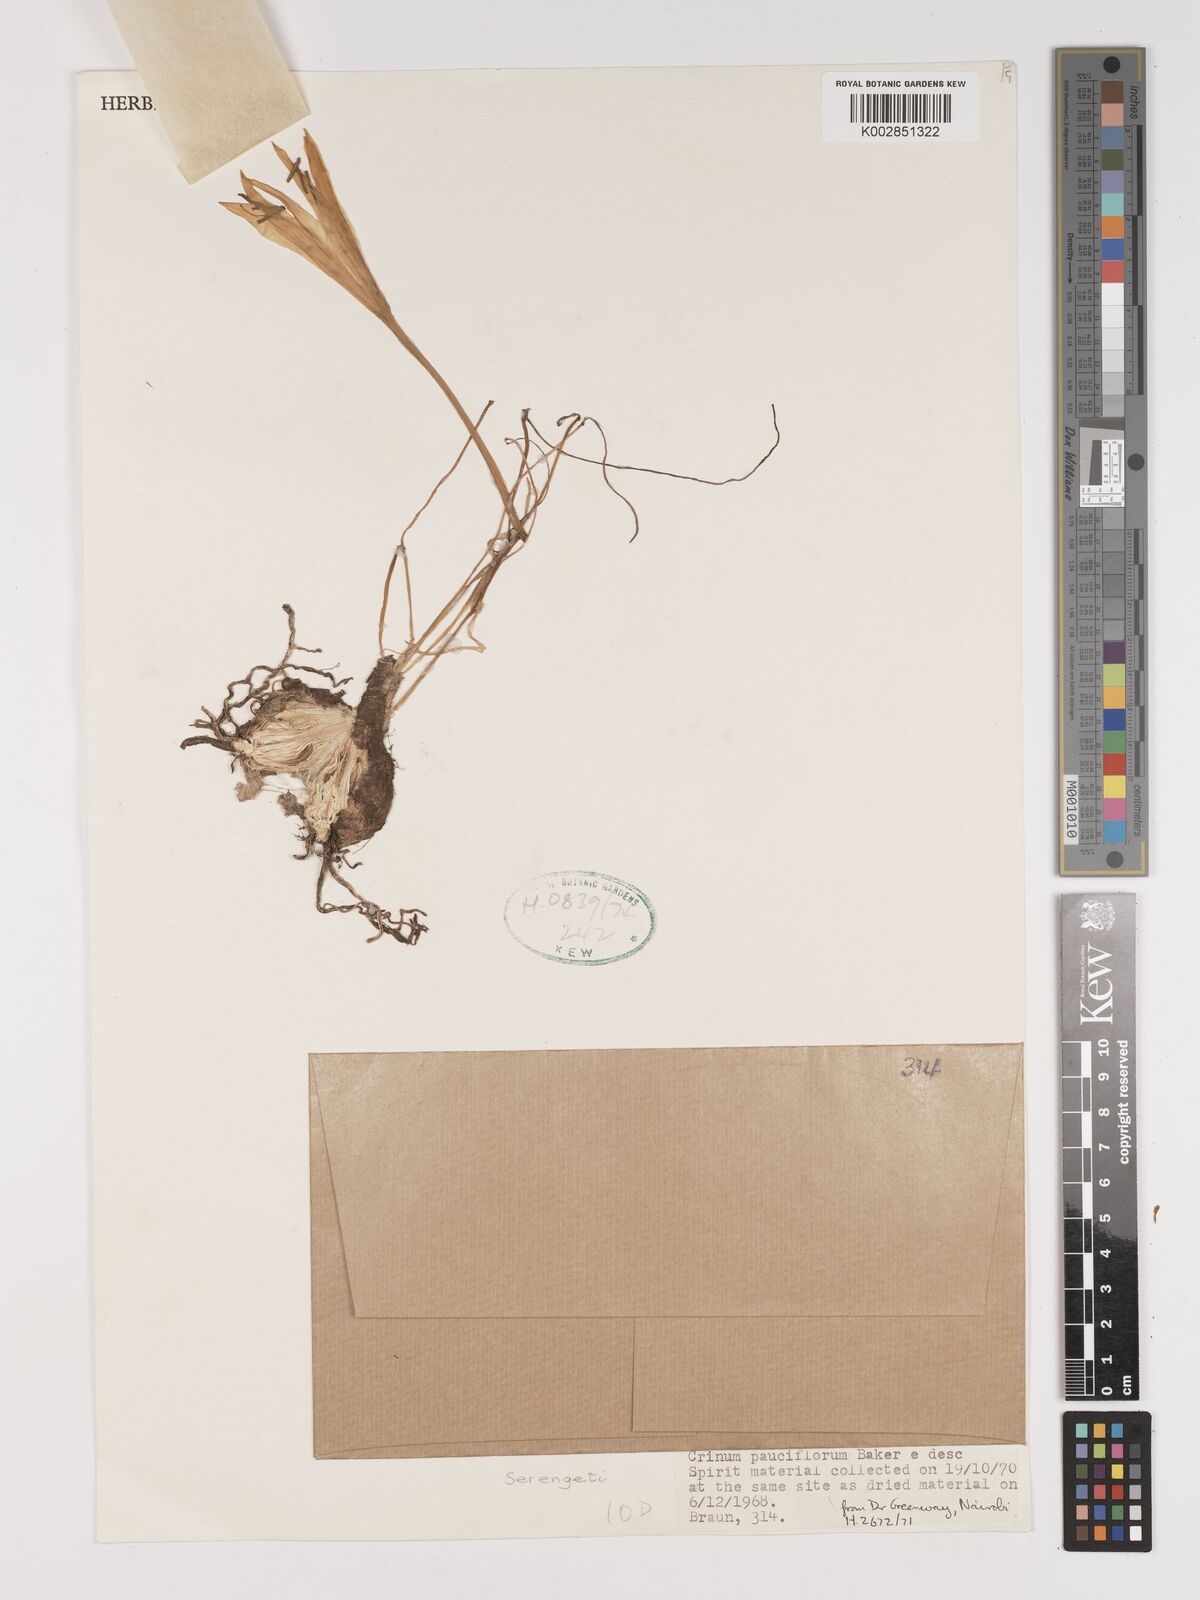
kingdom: Plantae
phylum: Tracheophyta
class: Liliopsida
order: Asparagales
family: Amaryllidaceae
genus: Crinum
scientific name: Crinum minimum
